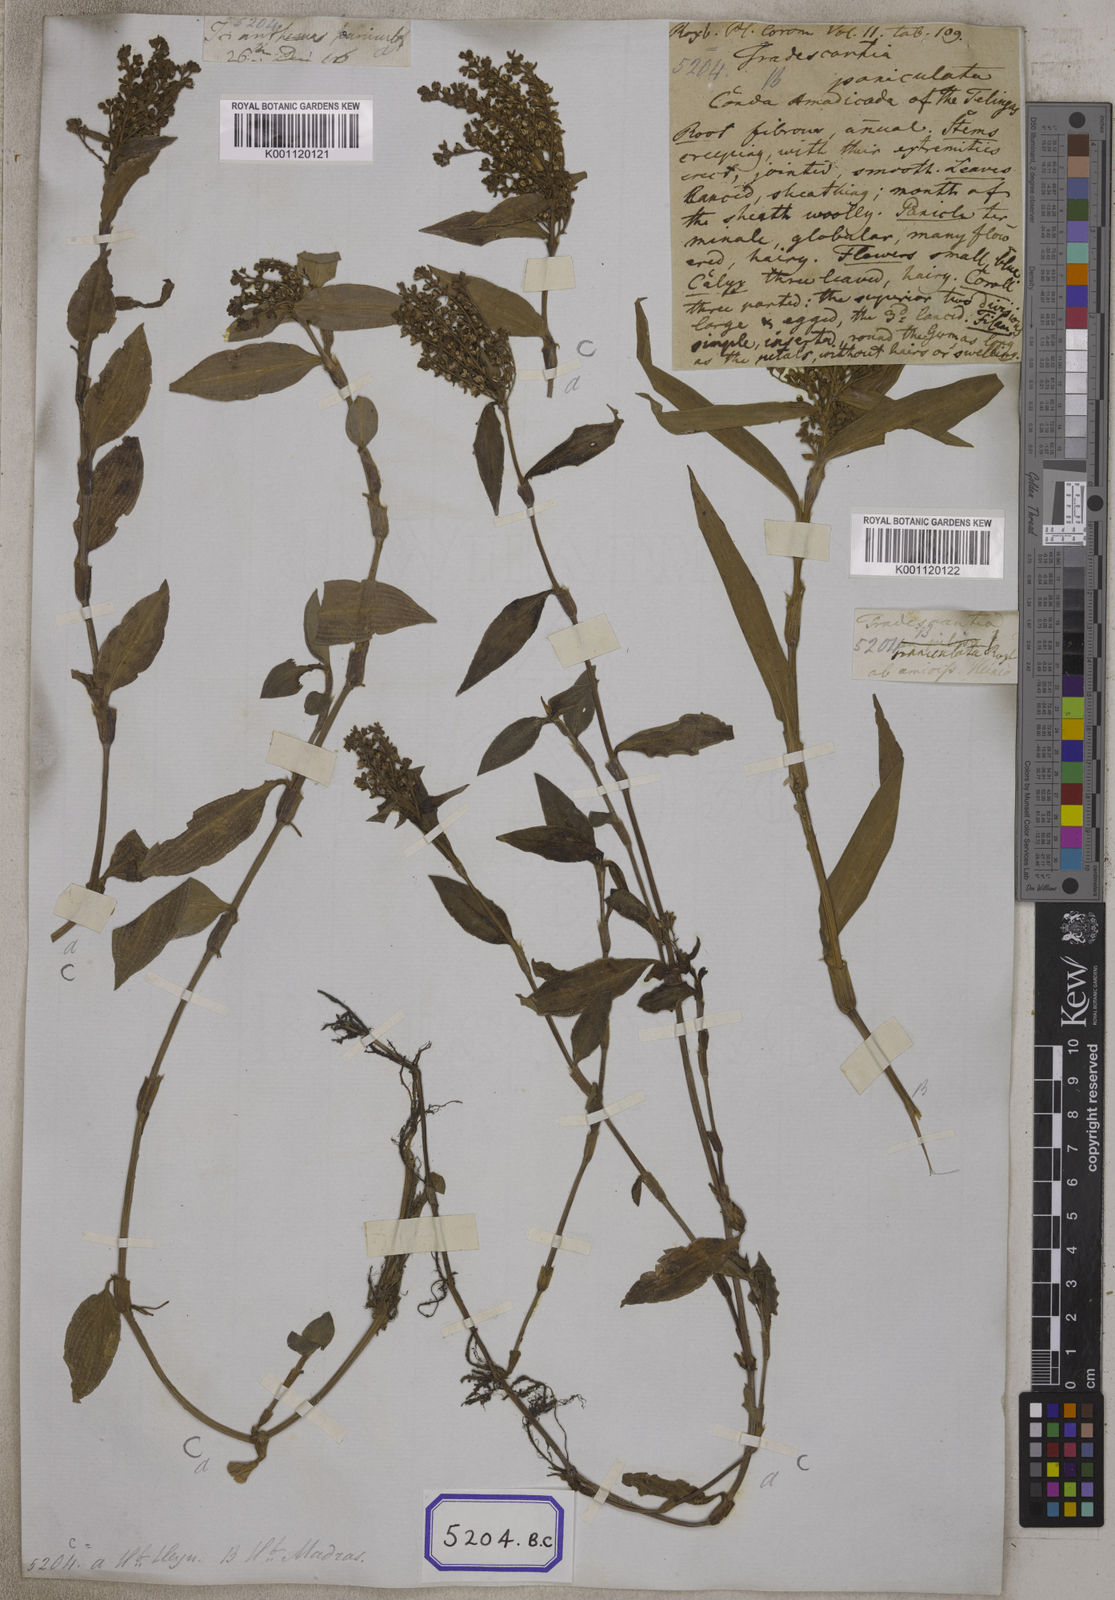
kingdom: Plantae
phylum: Tracheophyta
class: Liliopsida
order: Commelinales
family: Commelinaceae
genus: Floscopa
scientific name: Floscopa scandens
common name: Climbing flower cup
